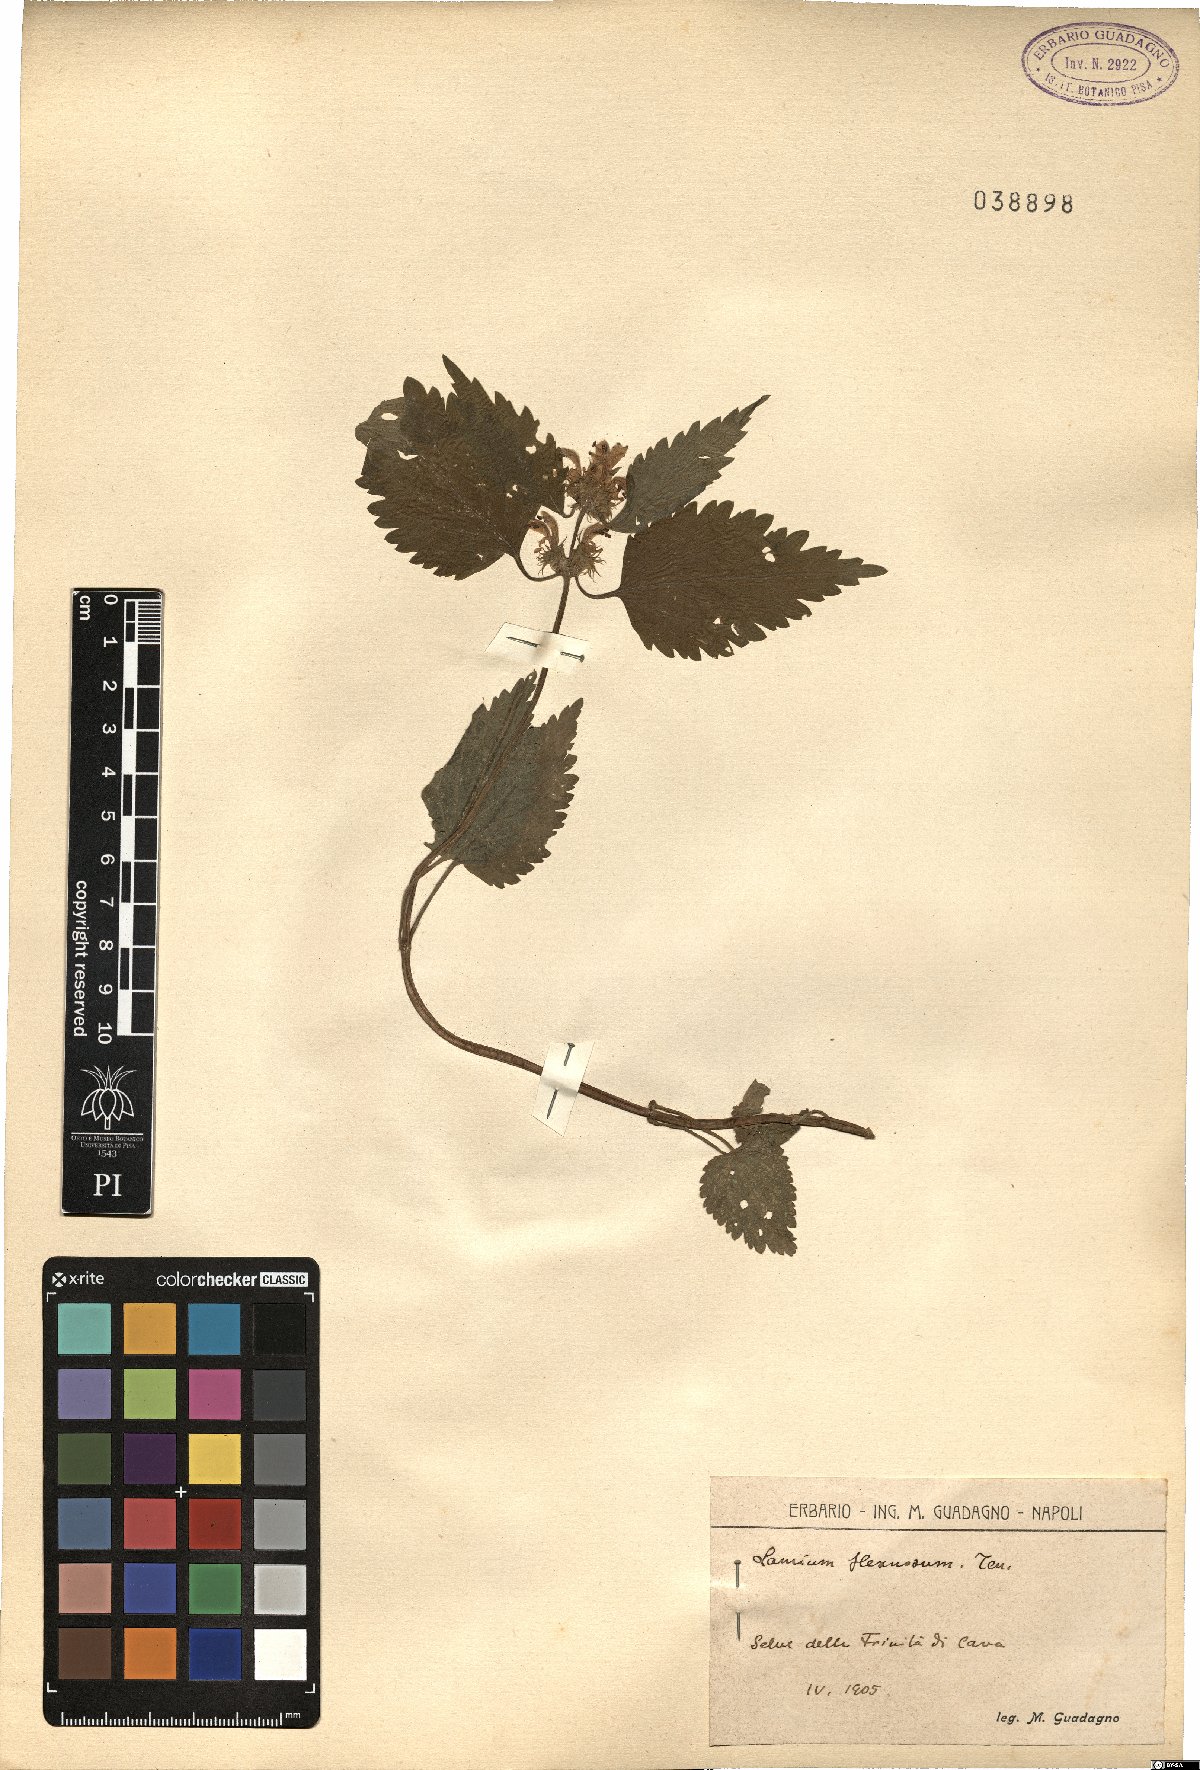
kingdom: Plantae
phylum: Tracheophyta
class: Magnoliopsida
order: Lamiales
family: Lamiaceae
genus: Lamium
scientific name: Lamium flexuosum
